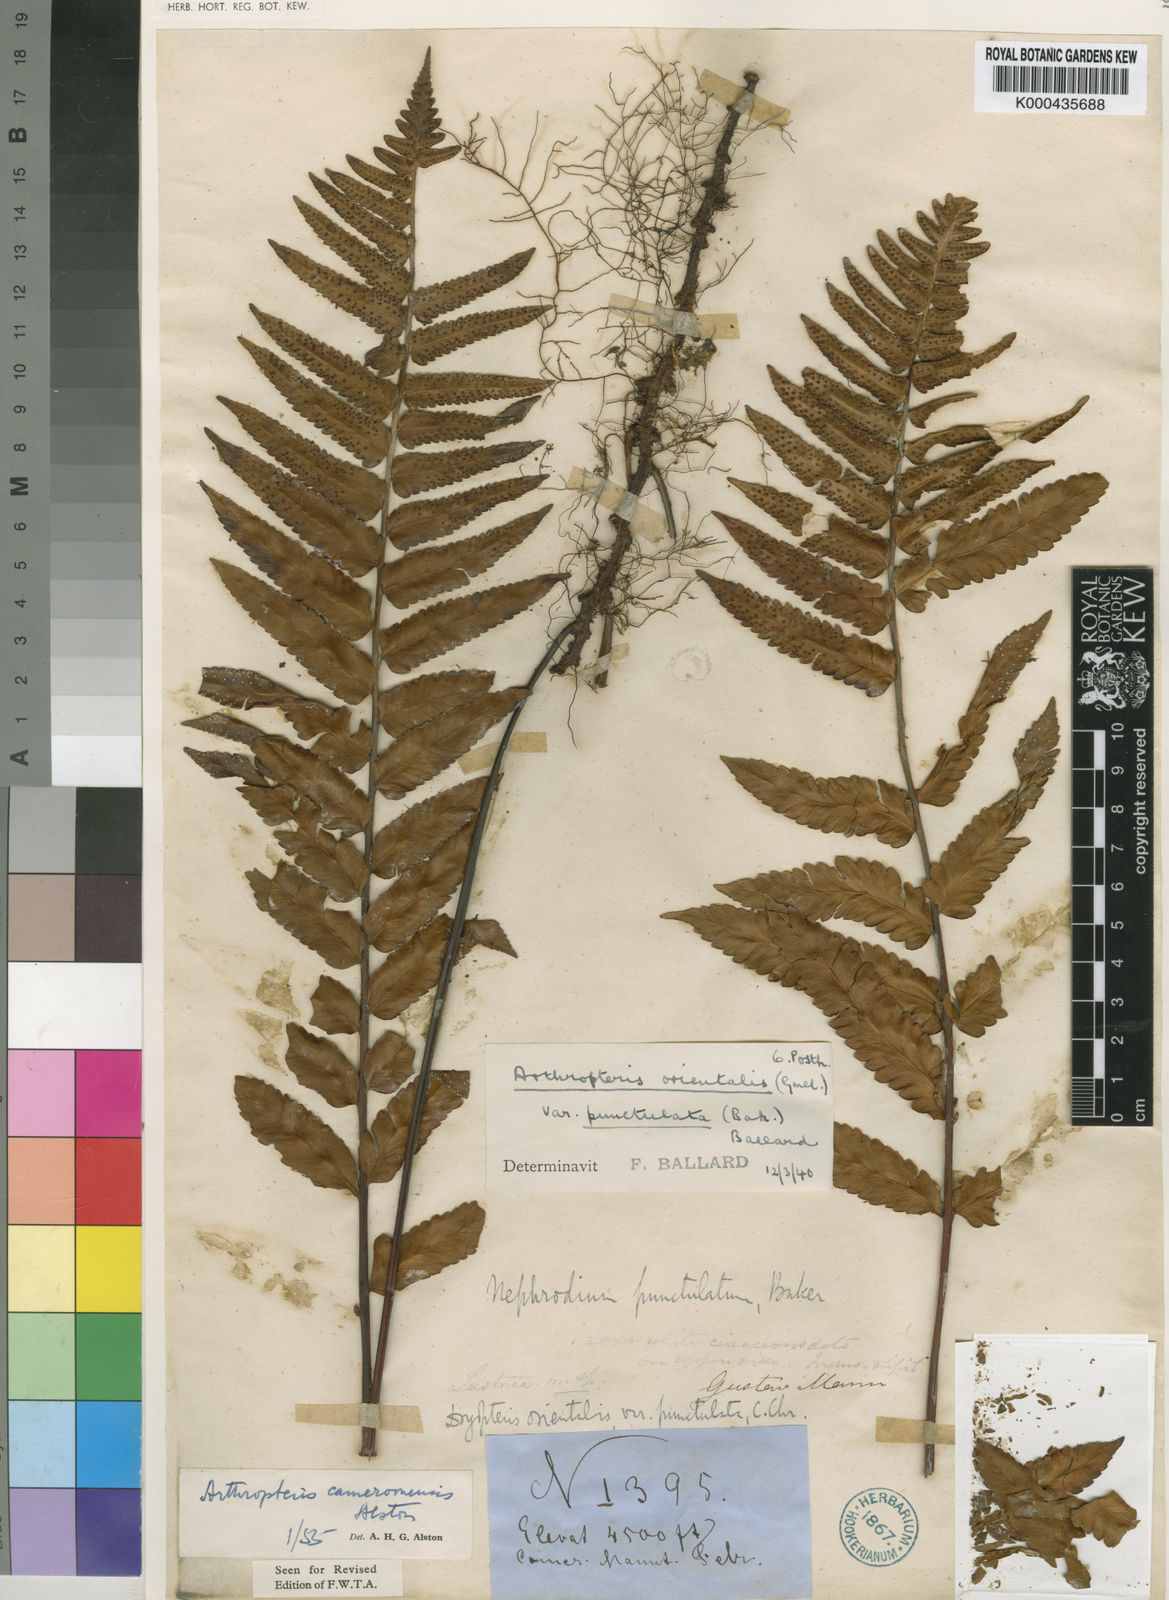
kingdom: Plantae
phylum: Tracheophyta
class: Polypodiopsida
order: Polypodiales
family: Tectariaceae
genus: Arthropteris
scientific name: Arthropteris cameroonensis
